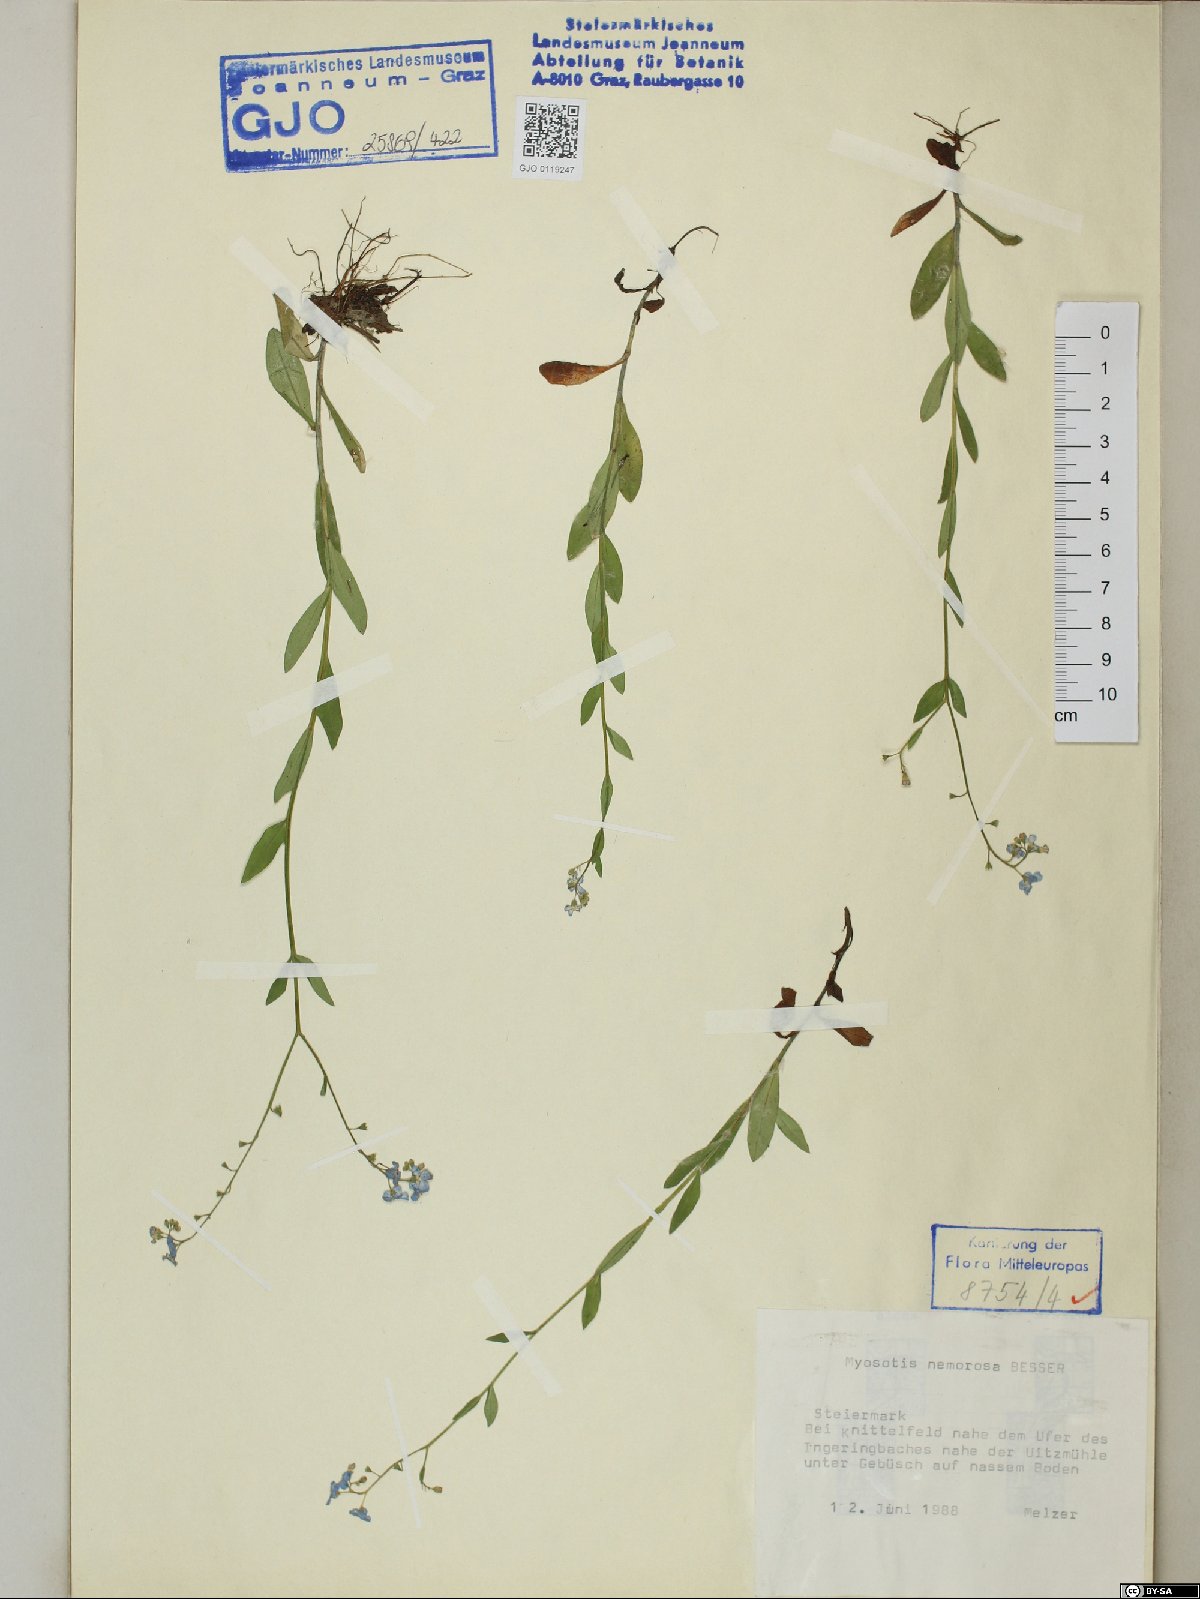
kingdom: Plantae
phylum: Tracheophyta
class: Magnoliopsida
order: Boraginales
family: Boraginaceae
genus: Myosotis
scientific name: Myosotis nemorosa
